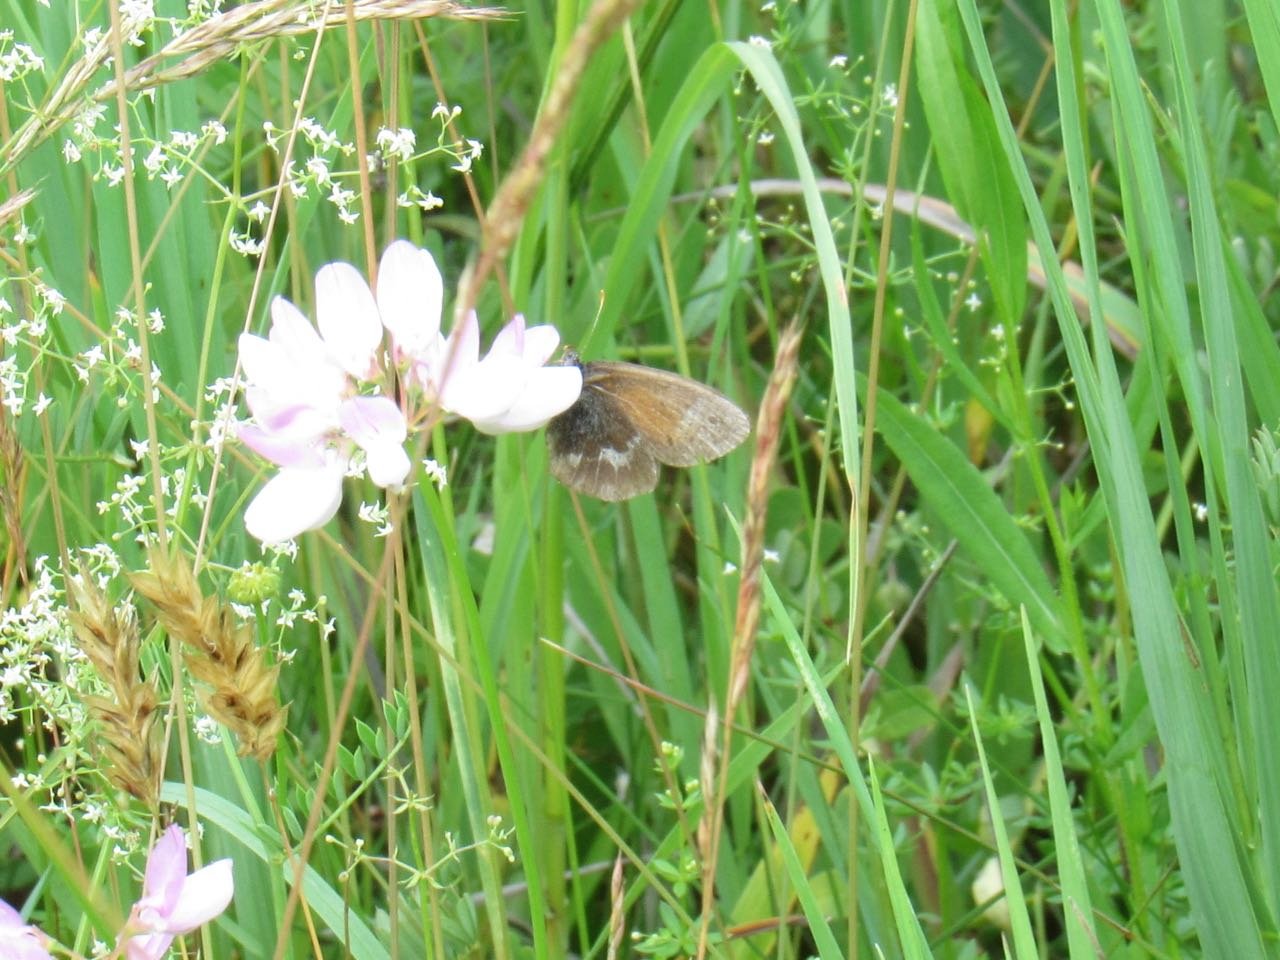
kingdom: Animalia
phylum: Arthropoda
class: Insecta
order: Lepidoptera
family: Nymphalidae
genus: Coenonympha
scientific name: Coenonympha tullia
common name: Large Heath
